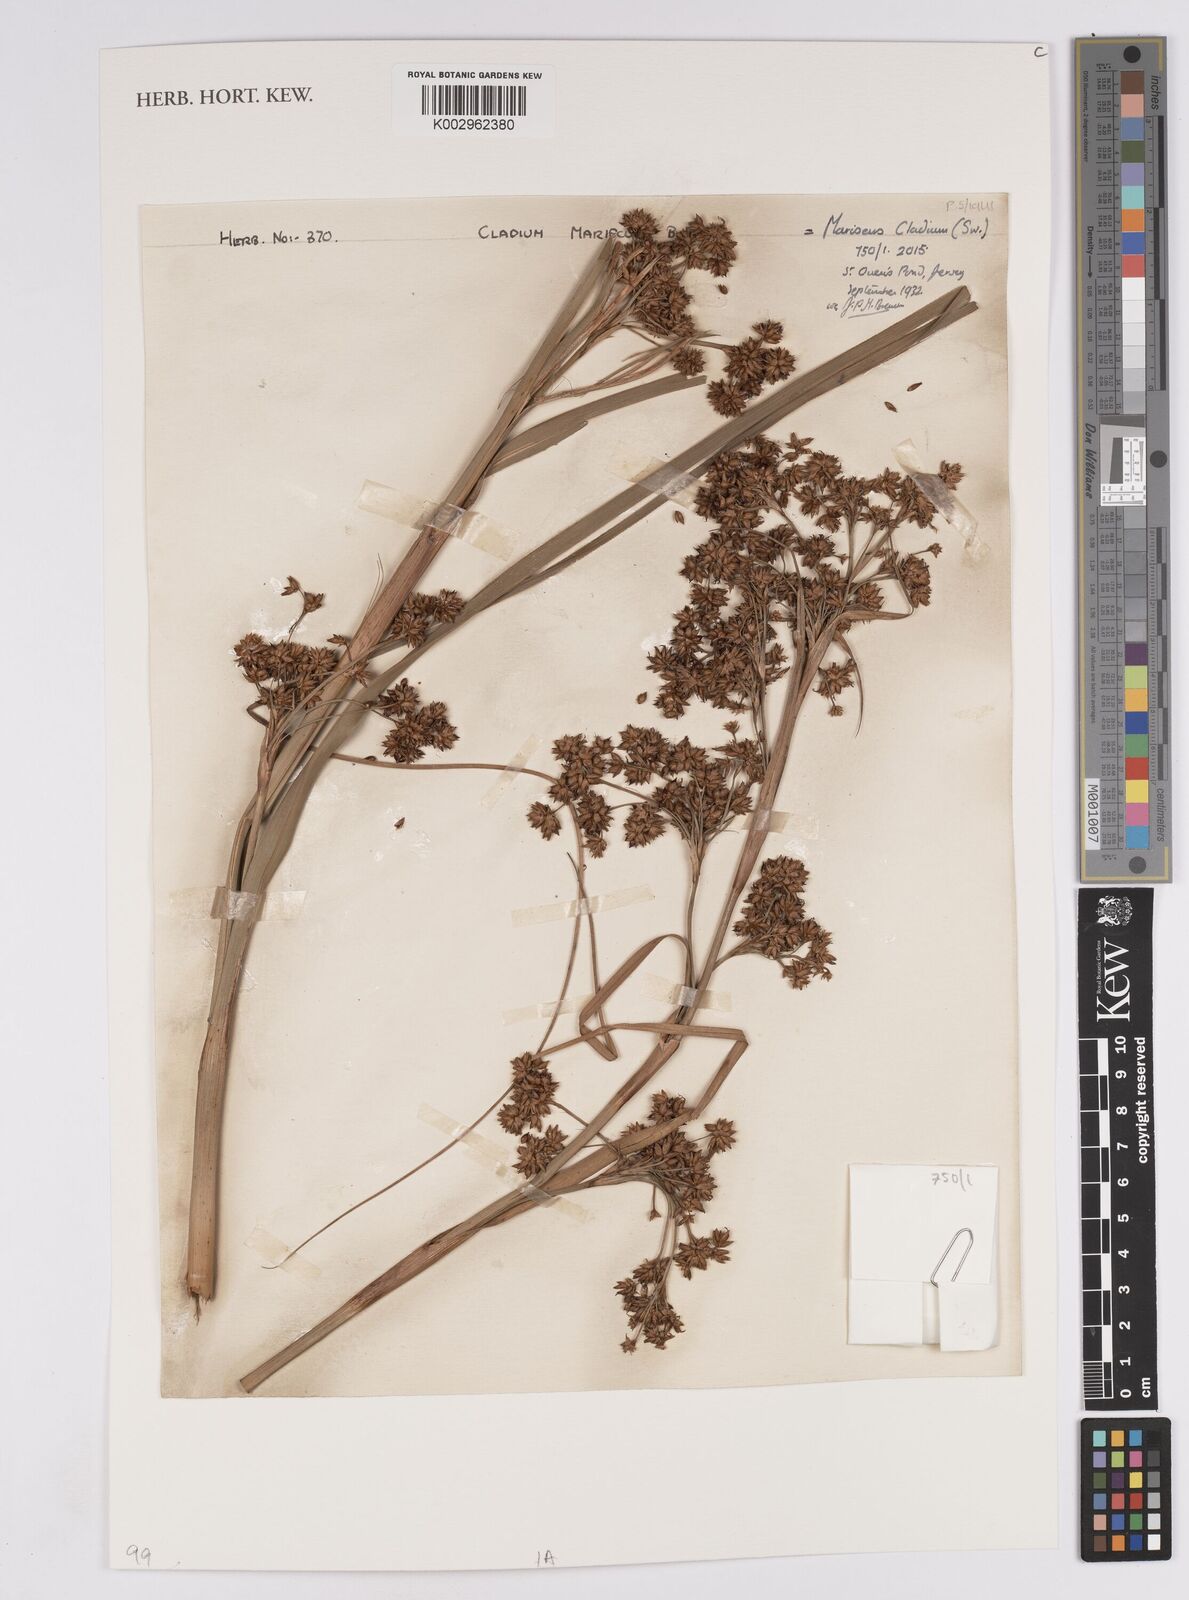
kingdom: Plantae
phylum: Tracheophyta
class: Liliopsida
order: Poales
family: Cyperaceae
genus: Cladium
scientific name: Cladium mariscus
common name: Great fen-sedge
